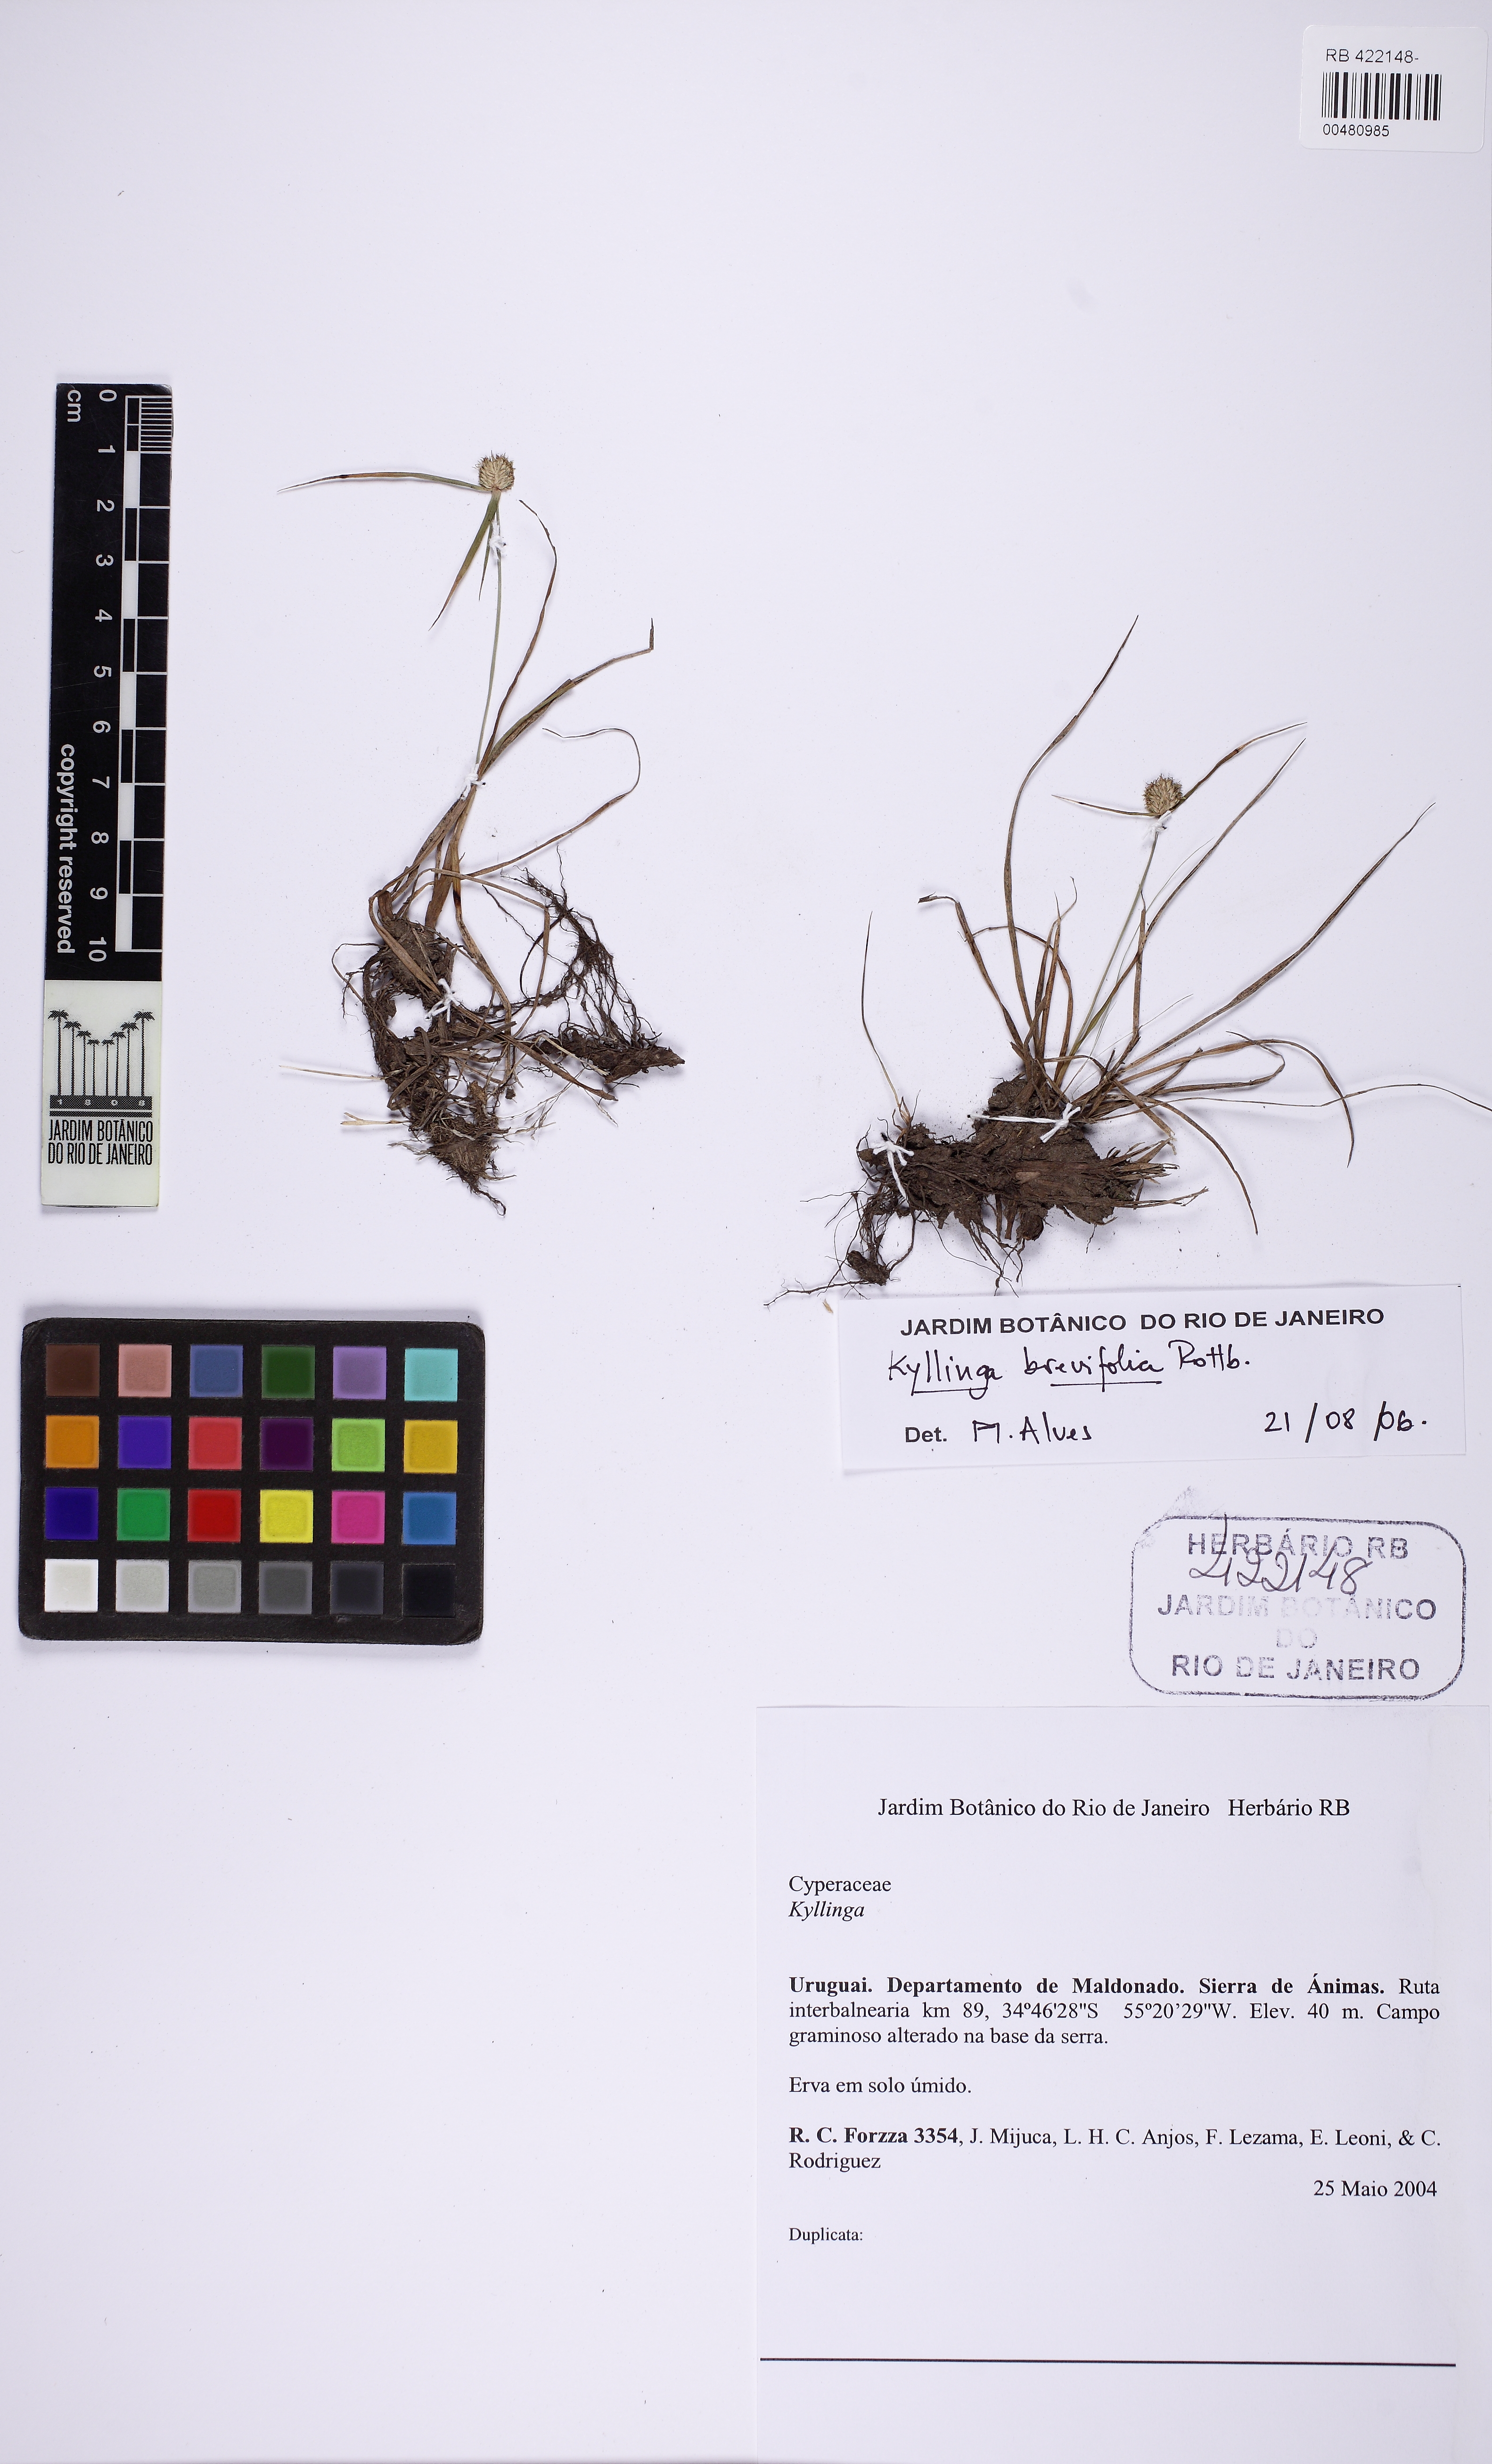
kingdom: Plantae
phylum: Tracheophyta
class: Liliopsida
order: Poales
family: Cyperaceae
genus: Cyperus
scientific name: Cyperus brevifolius
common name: Globe kyllinga
